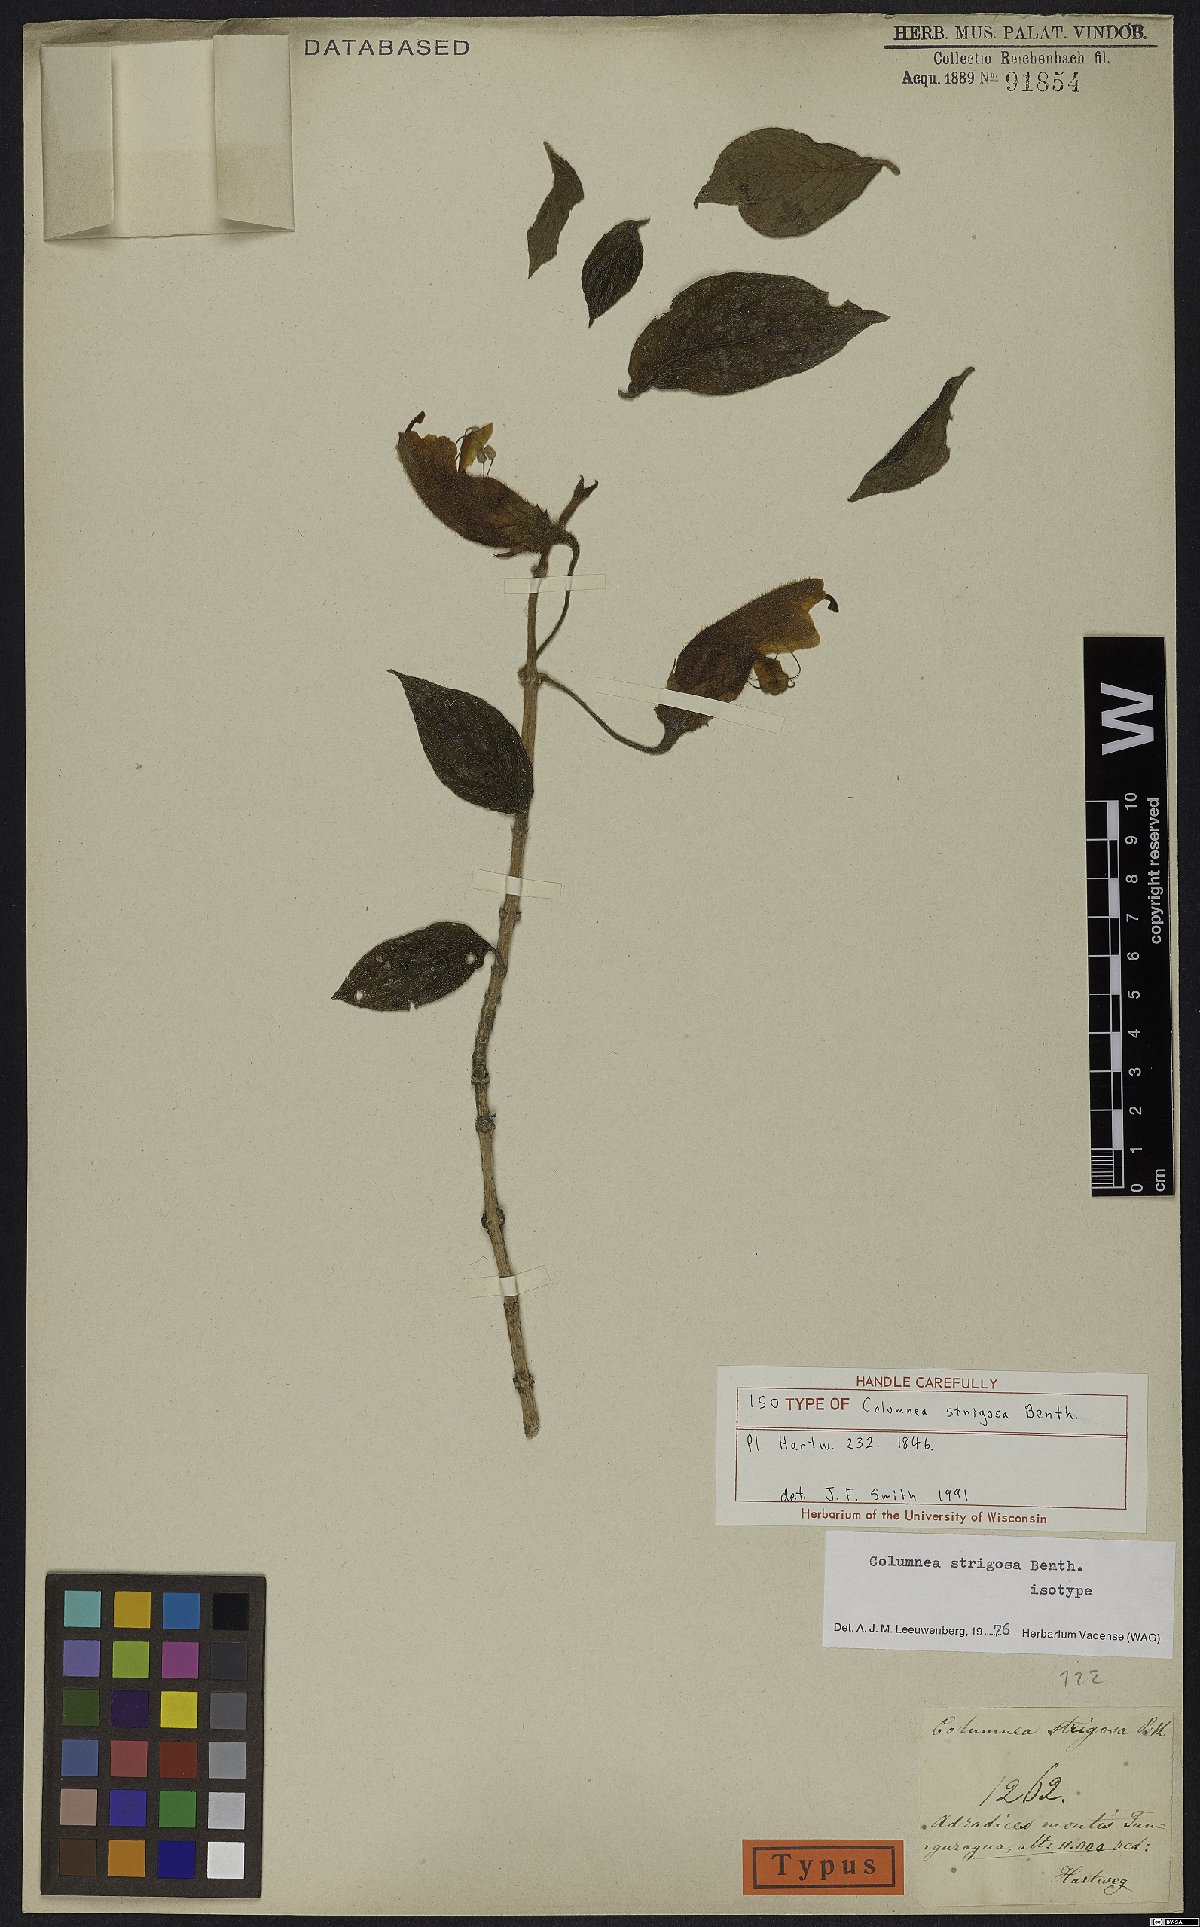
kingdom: Plantae
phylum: Tracheophyta
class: Magnoliopsida
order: Lamiales
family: Gesneriaceae
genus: Columnea
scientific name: Columnea strigosa
